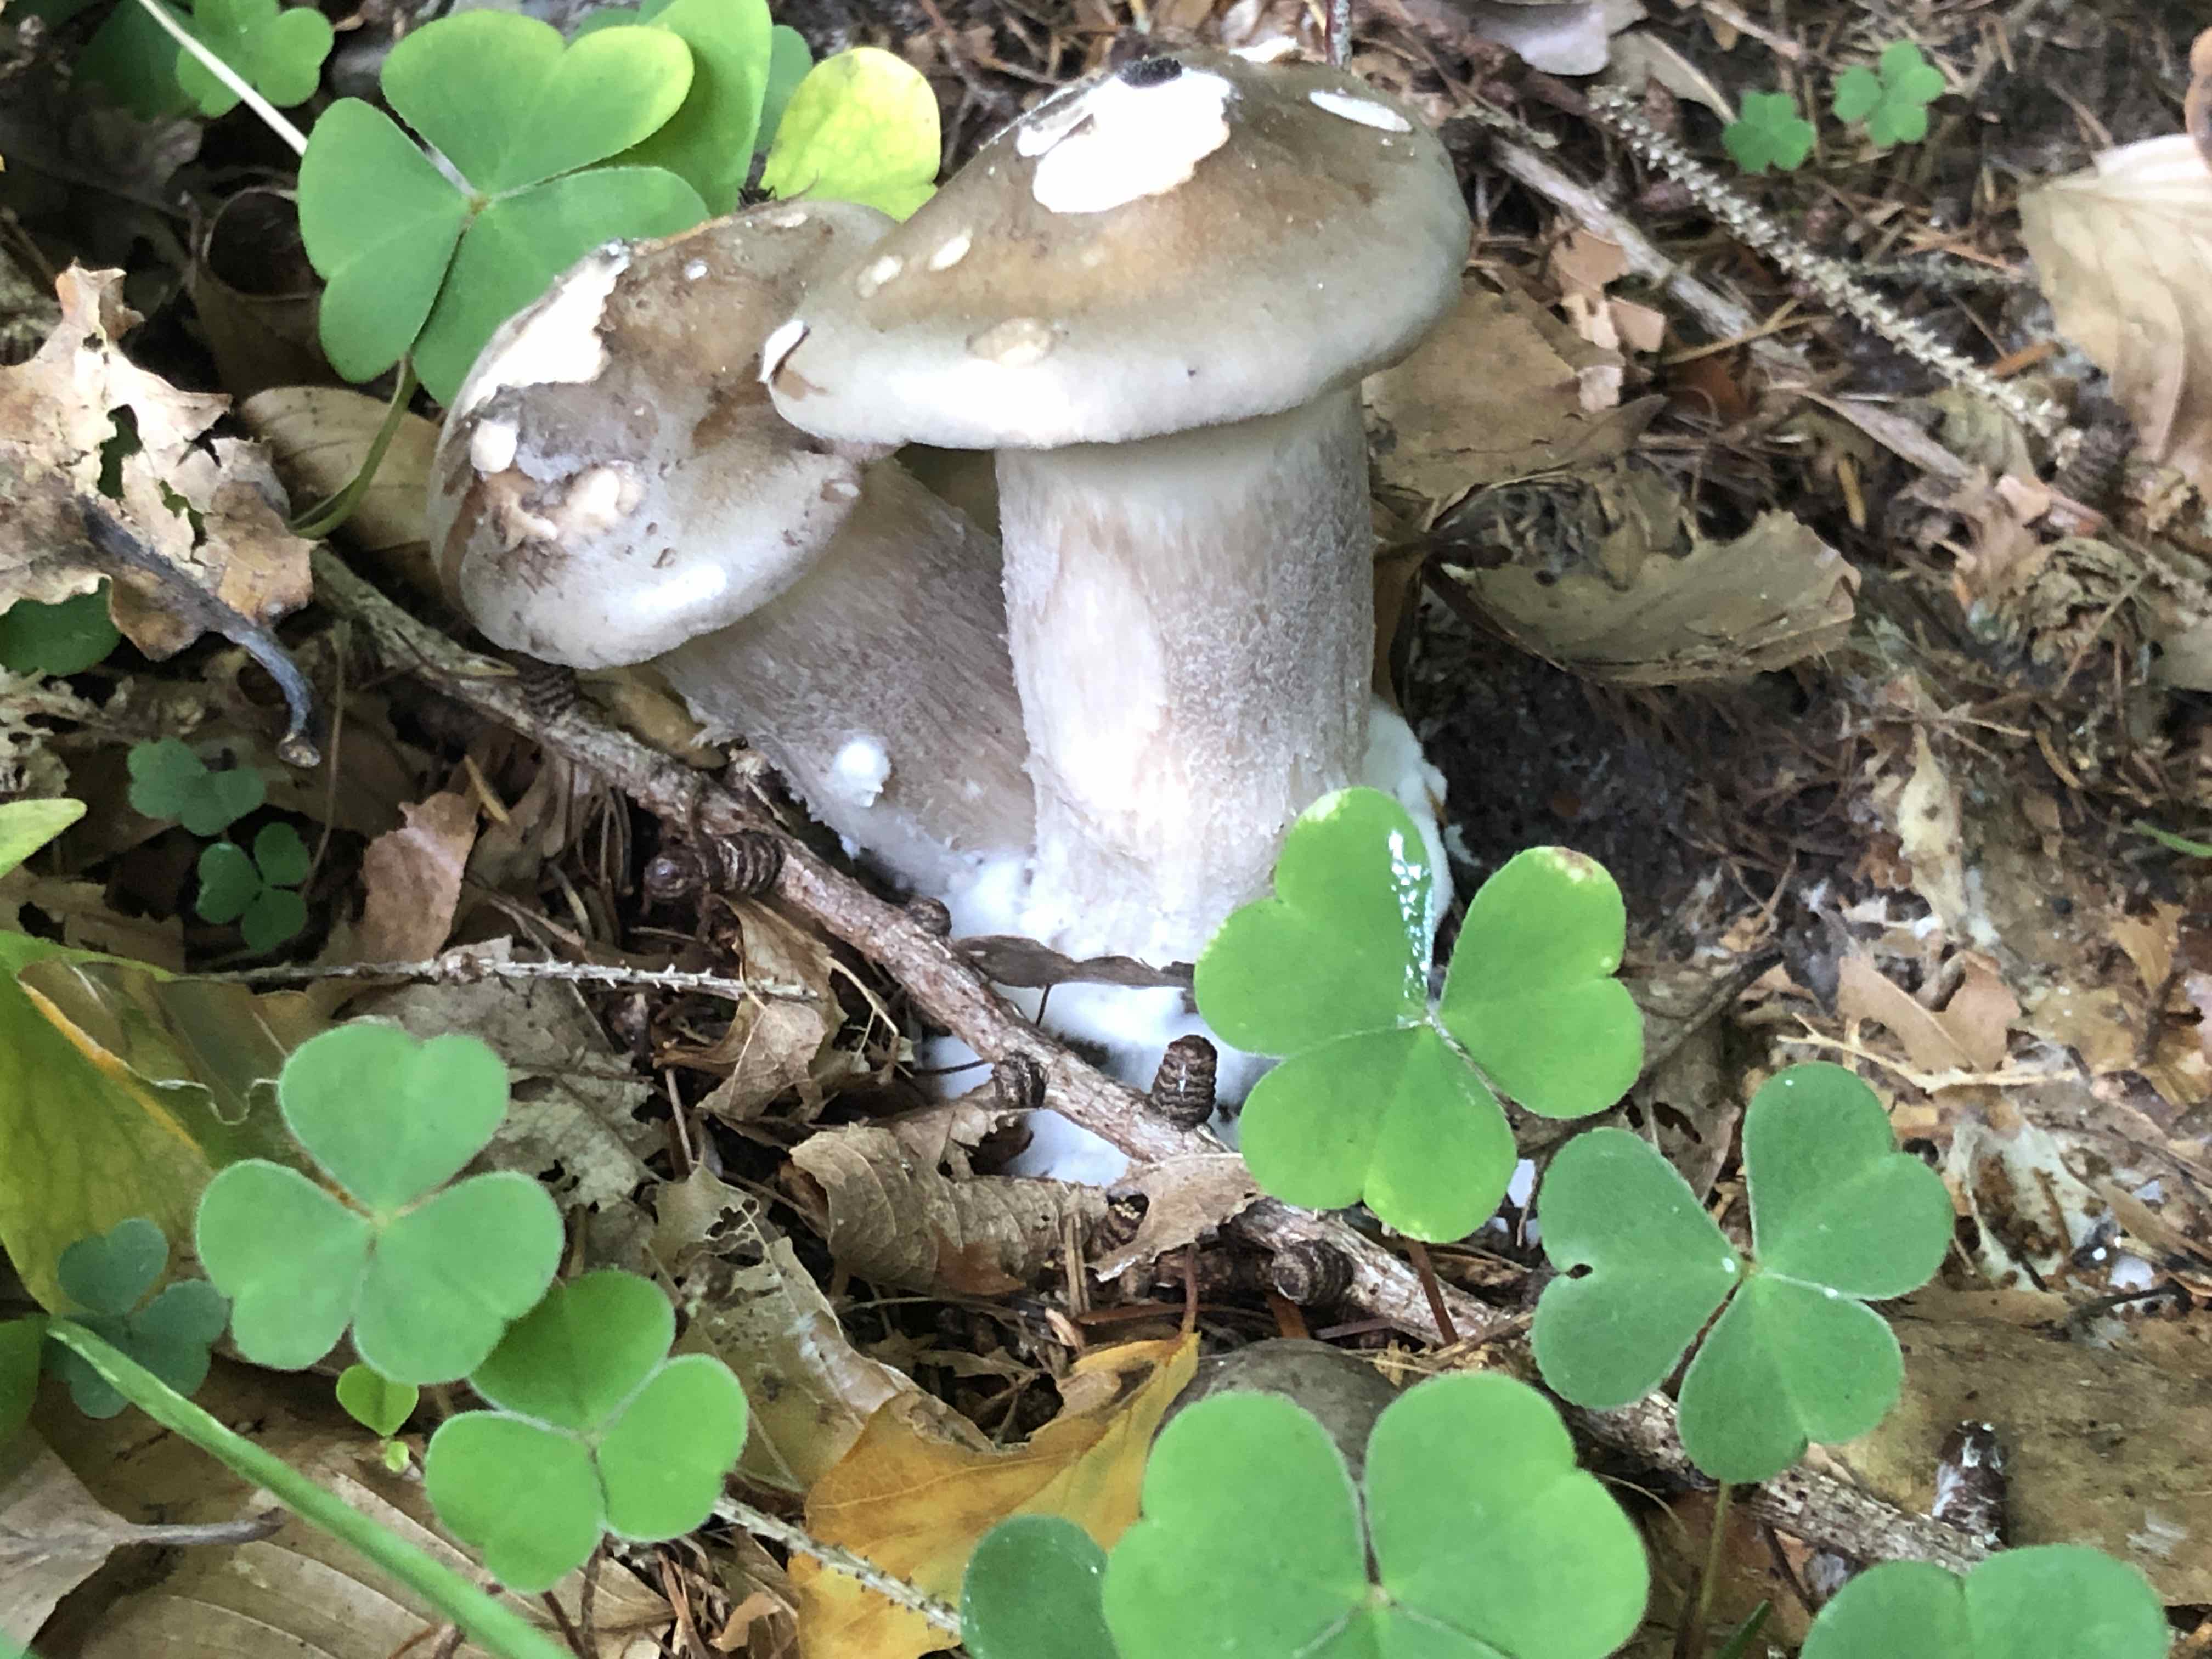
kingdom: Fungi
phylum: Basidiomycota
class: Agaricomycetes
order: Agaricales
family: Tricholomataceae
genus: Clitocybe
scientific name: Clitocybe nebularis
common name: tåge-tragthat
